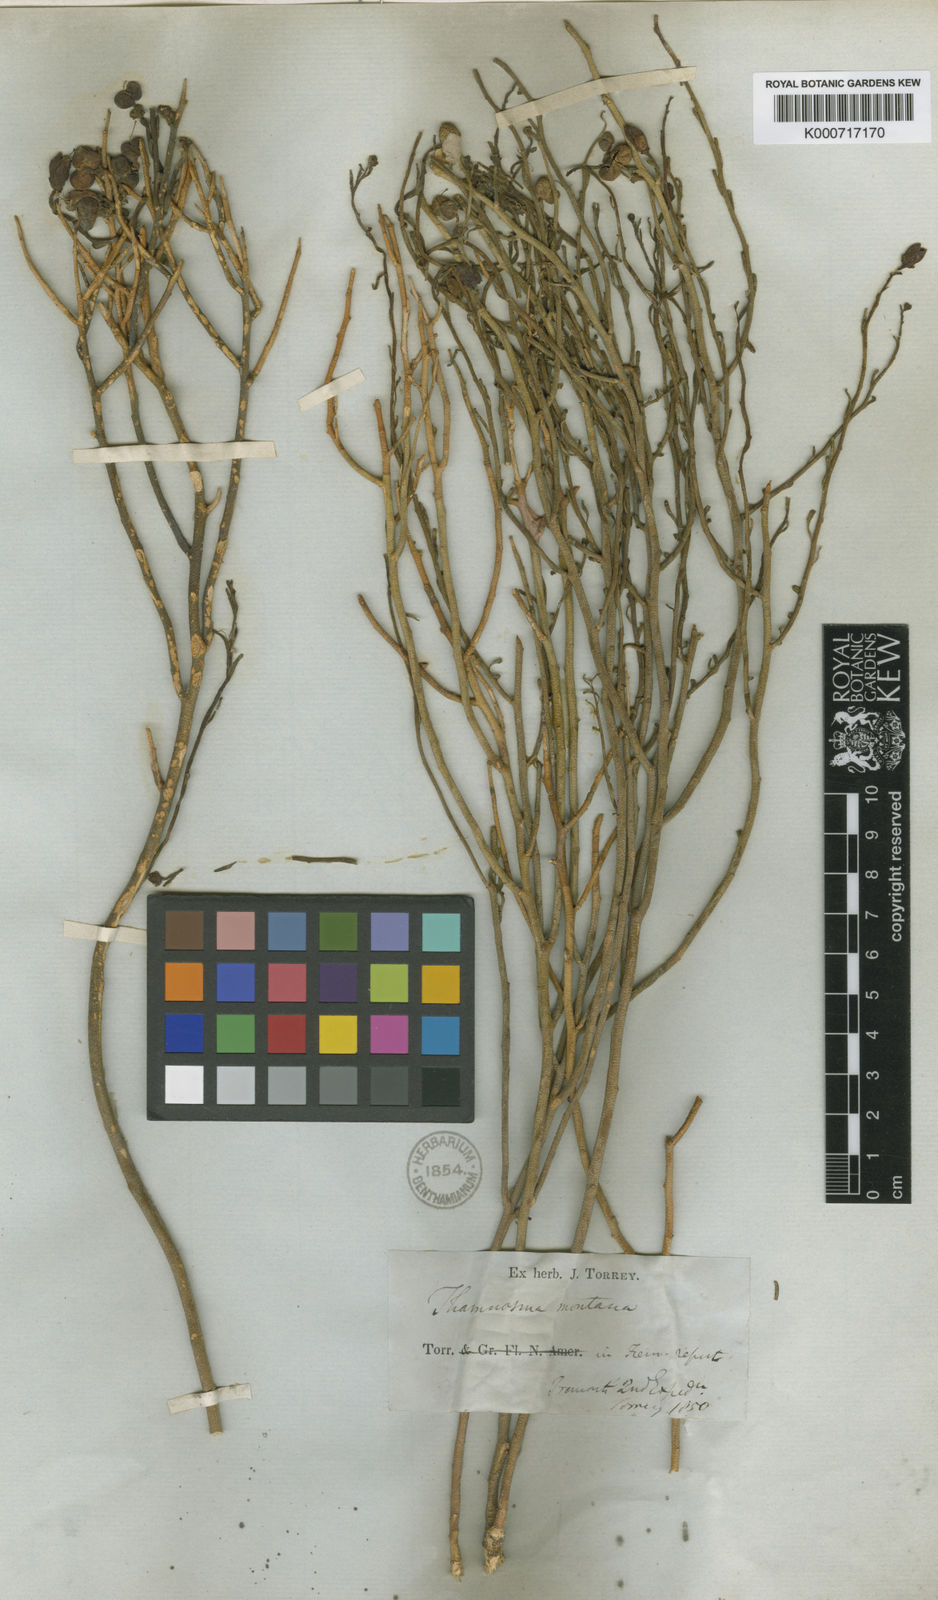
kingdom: Plantae
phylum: Tracheophyta
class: Magnoliopsida
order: Sapindales
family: Rutaceae
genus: Thamnosma
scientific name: Thamnosma montana
